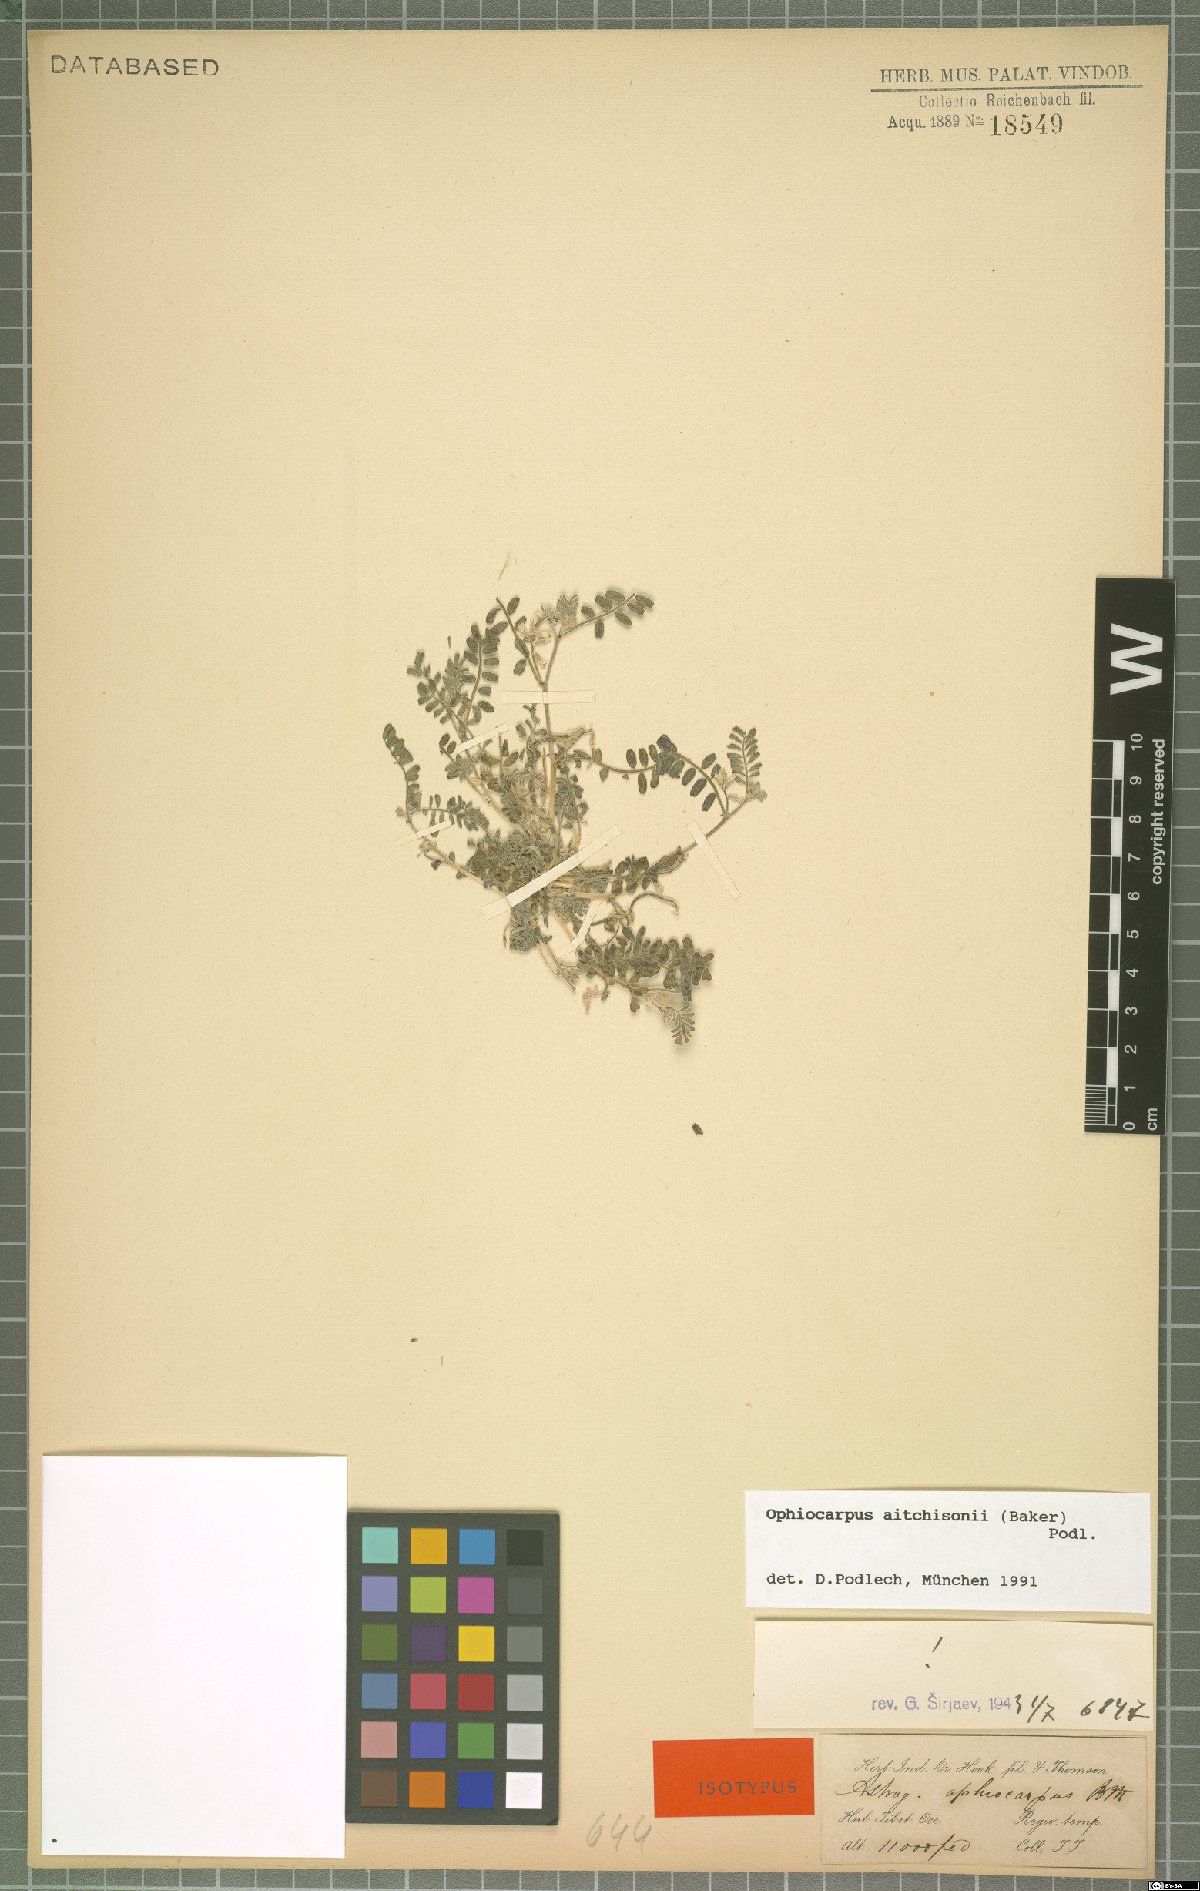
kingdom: Plantae
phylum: Tracheophyta
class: Magnoliopsida
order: Fabales
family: Fabaceae
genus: Astragalus
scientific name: Astragalus ophiocarpus
